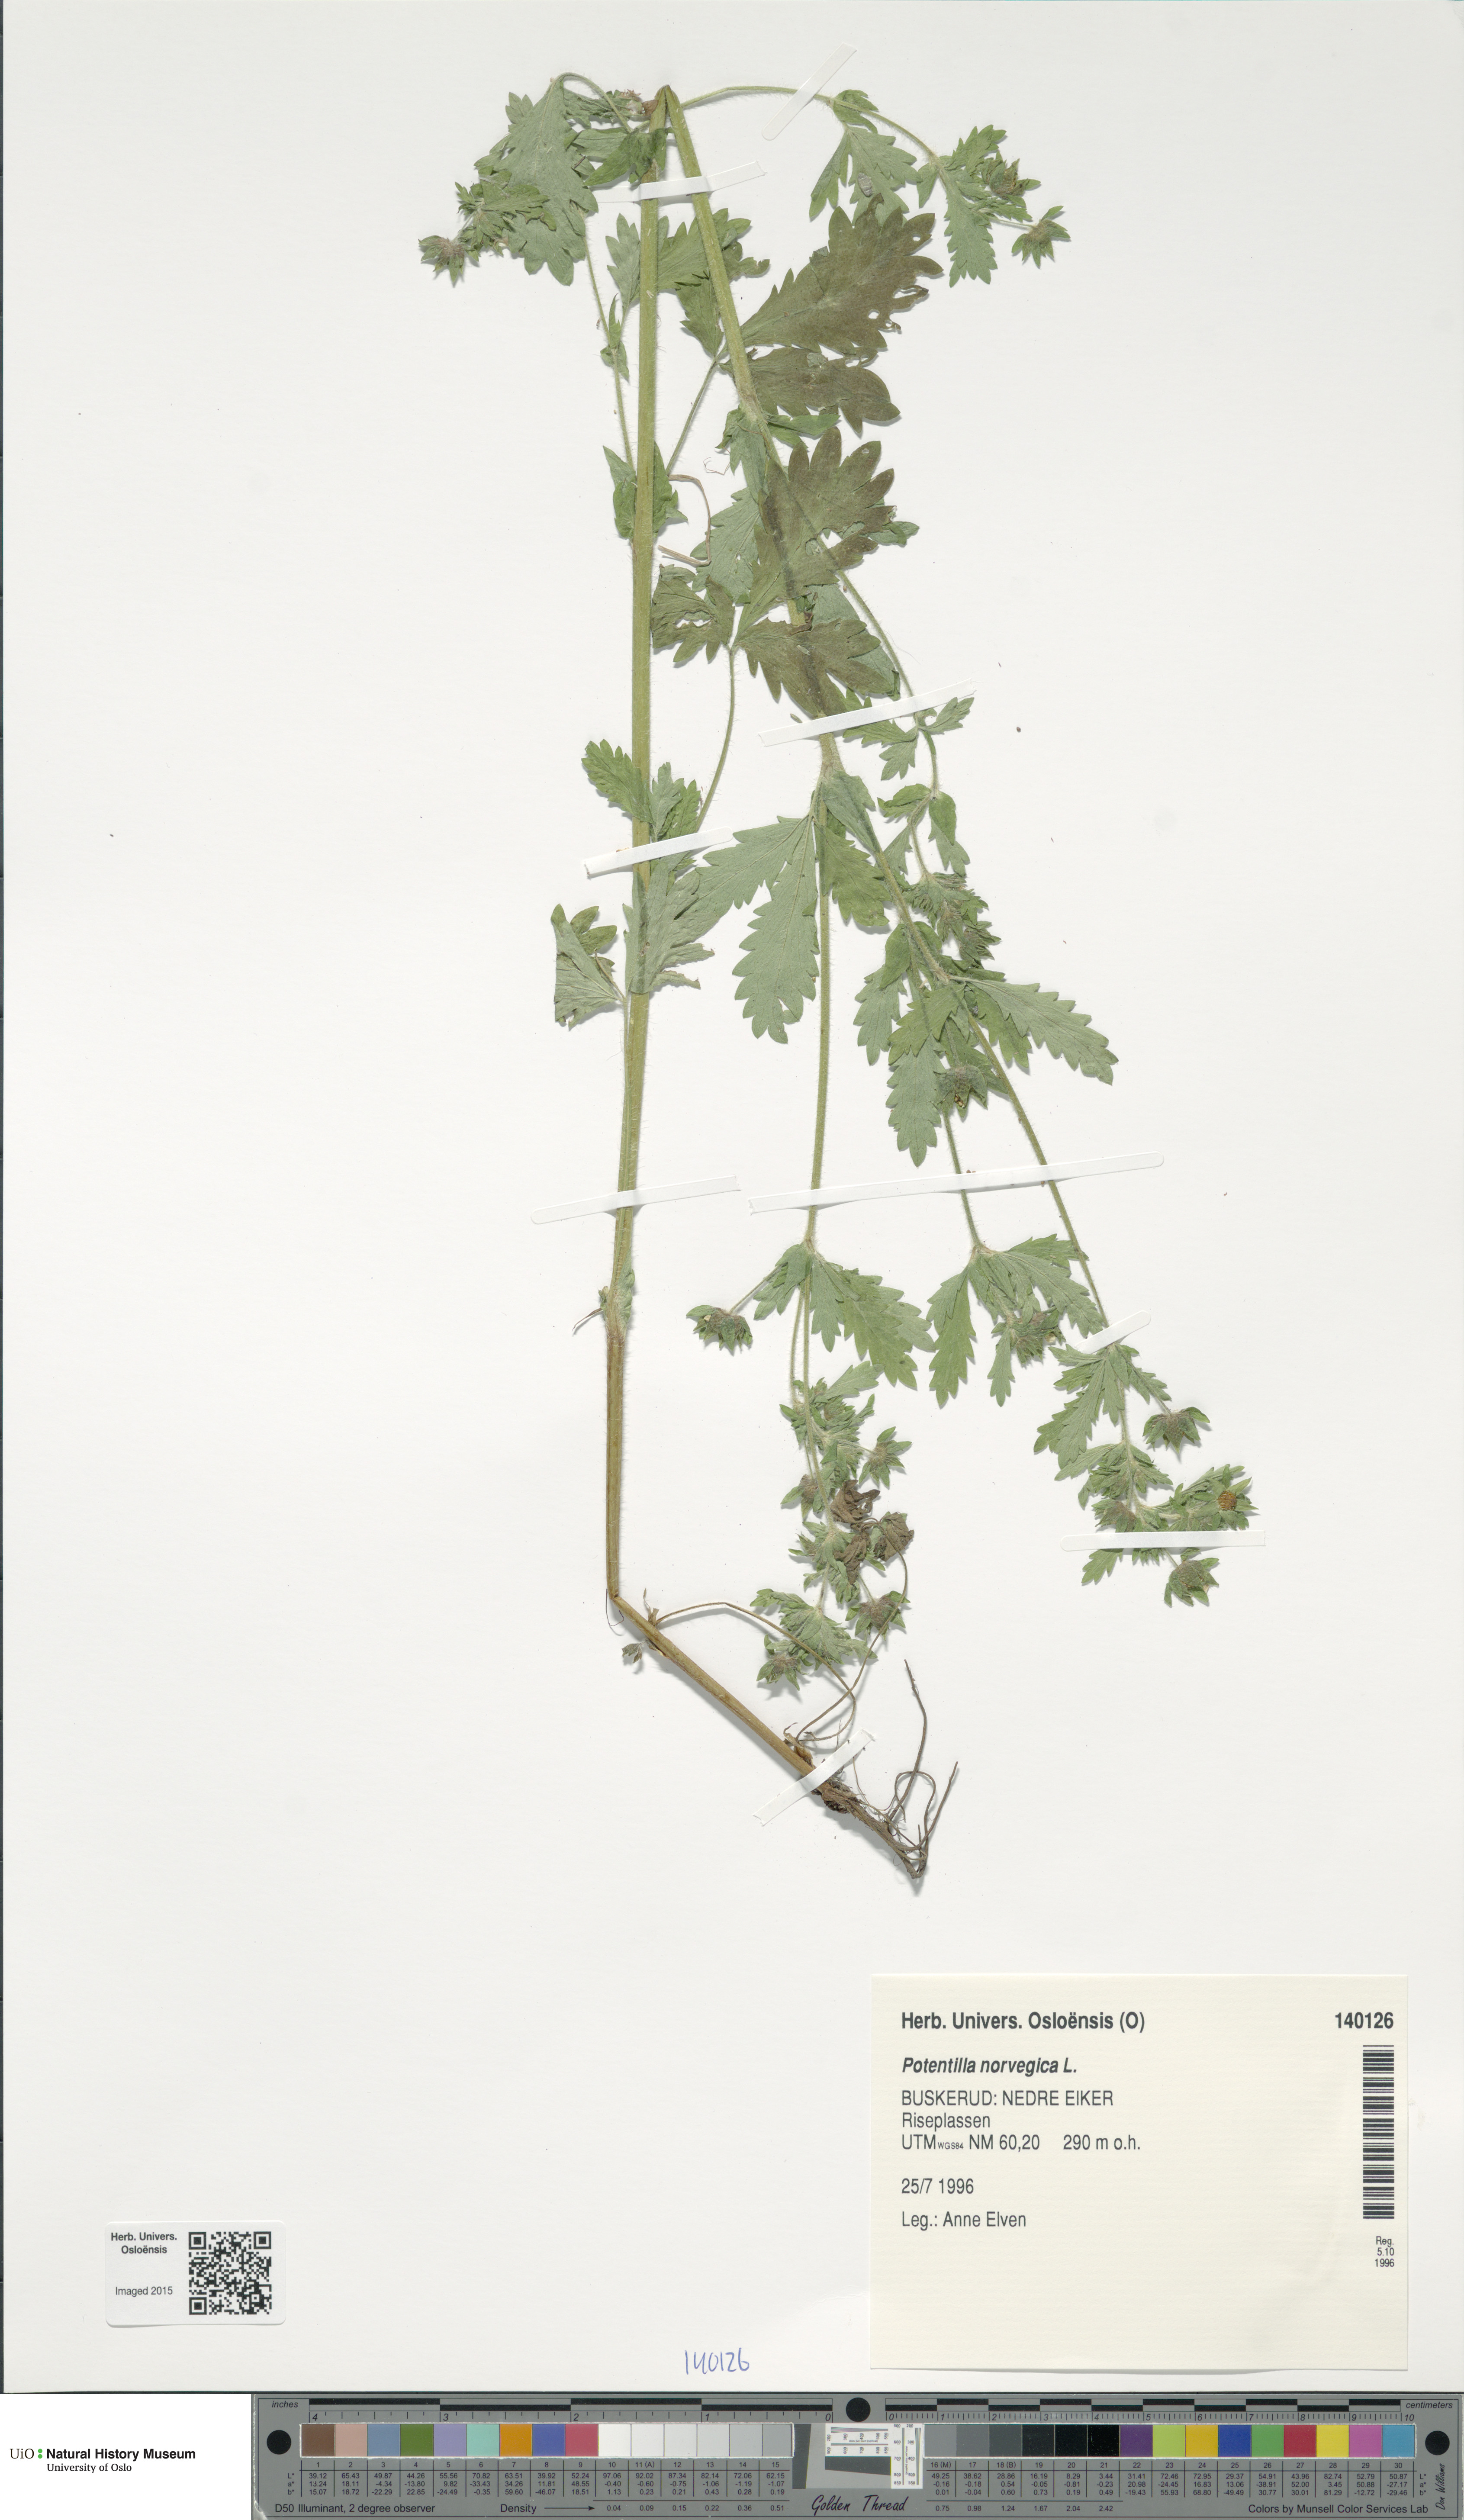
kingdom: Plantae
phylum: Tracheophyta
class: Magnoliopsida
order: Rosales
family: Rosaceae
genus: Potentilla
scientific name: Potentilla norvegica
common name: Ternate-leaved cinquefoil
